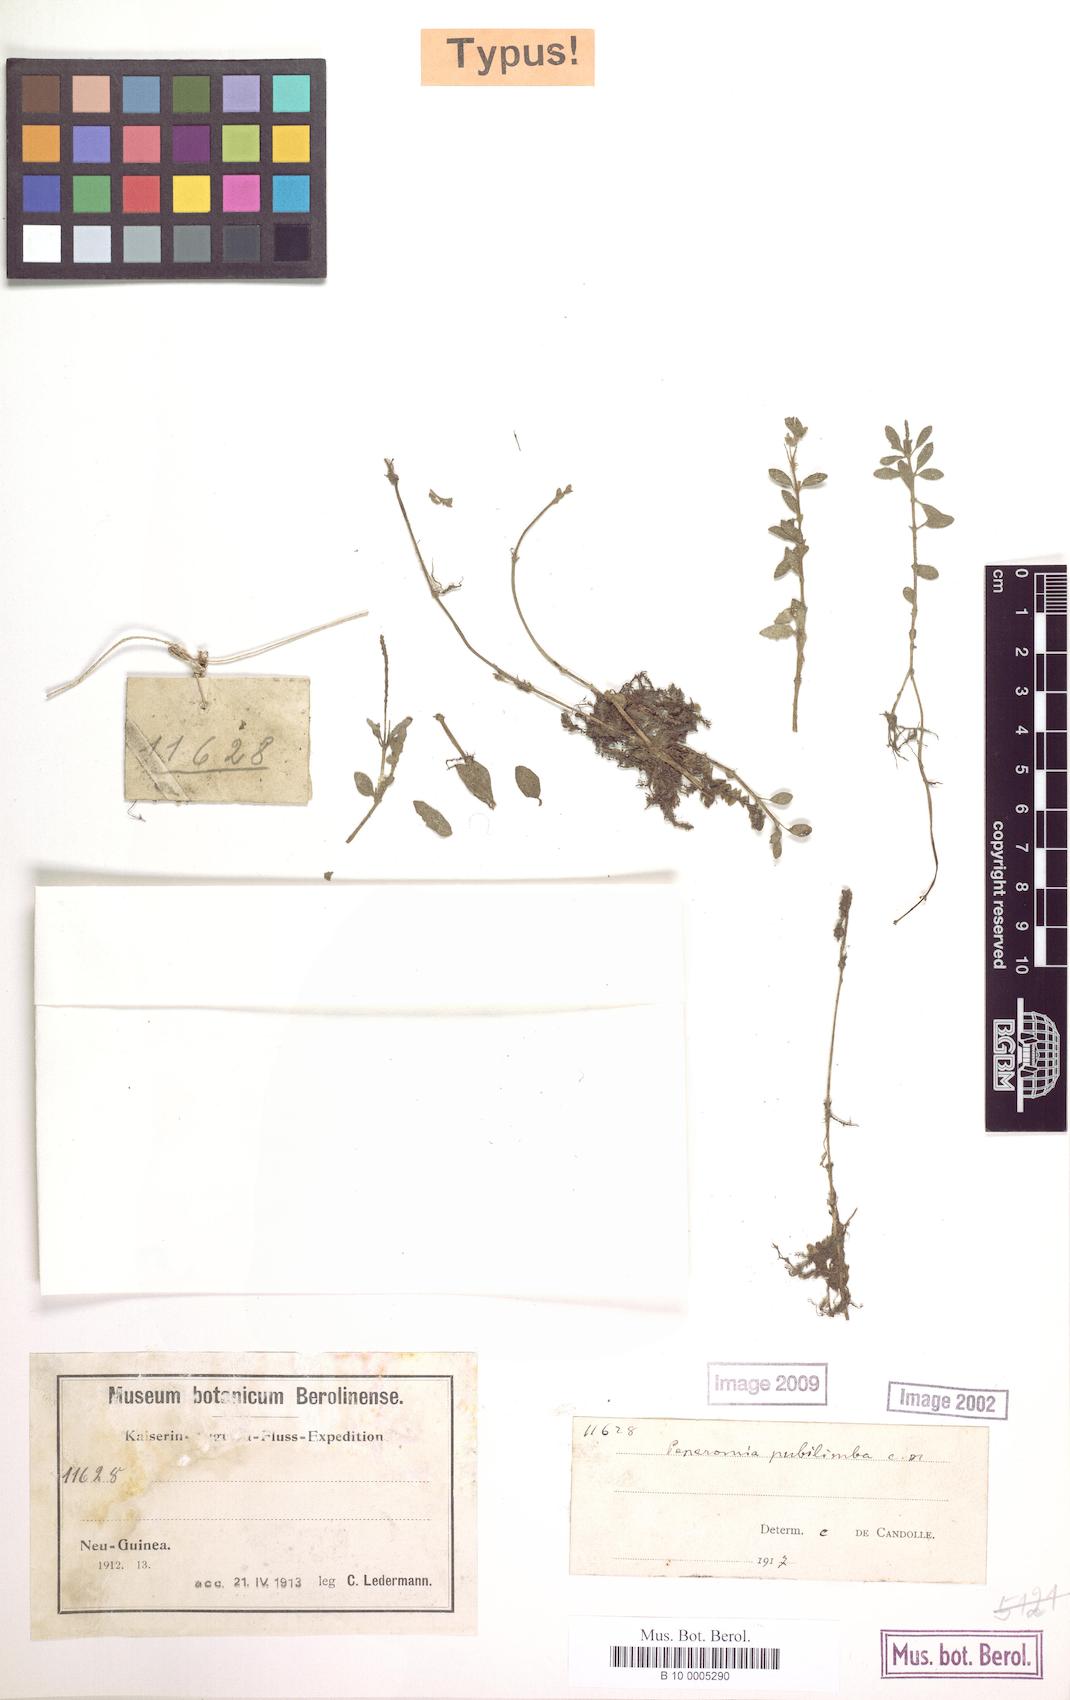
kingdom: Plantae
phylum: Tracheophyta
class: Magnoliopsida
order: Piperales
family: Piperaceae
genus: Peperomia
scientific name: Peperomia tenuipila
